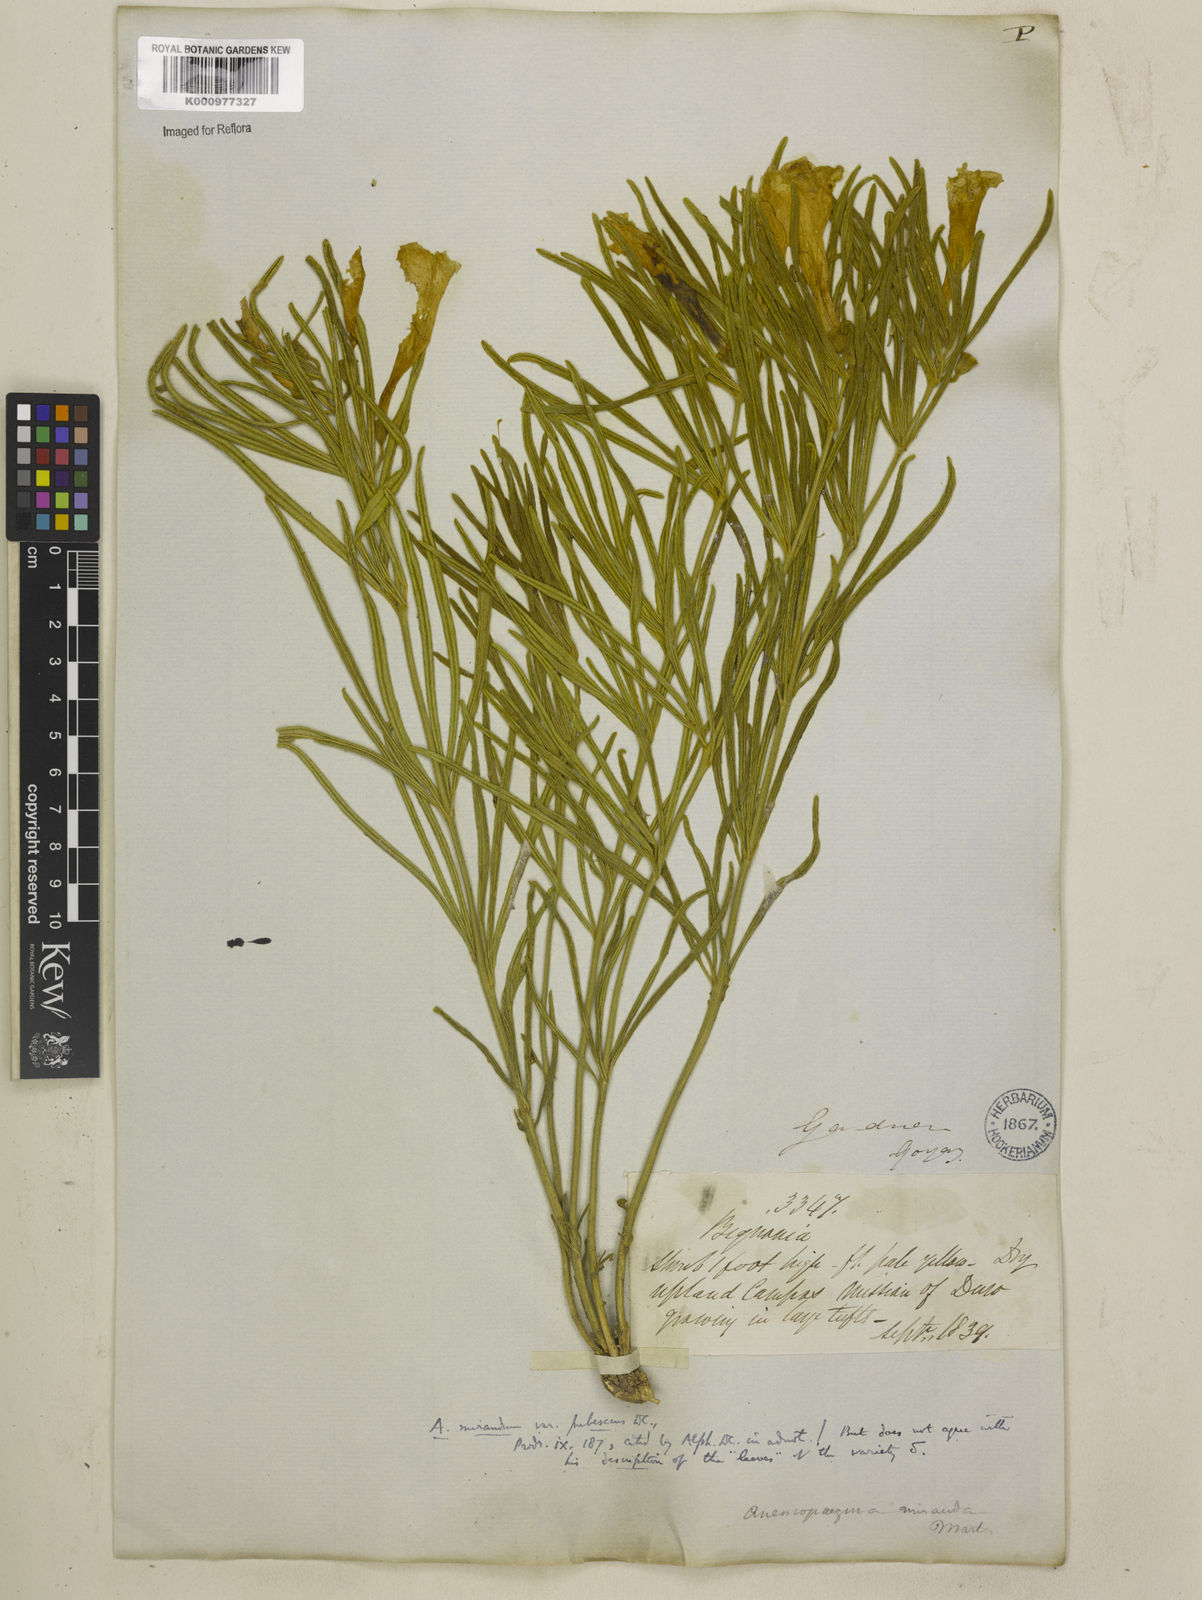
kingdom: Plantae
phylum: Tracheophyta
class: Magnoliopsida
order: Lamiales
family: Bignoniaceae
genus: Anemopaegma
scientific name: Anemopaegma arvense
